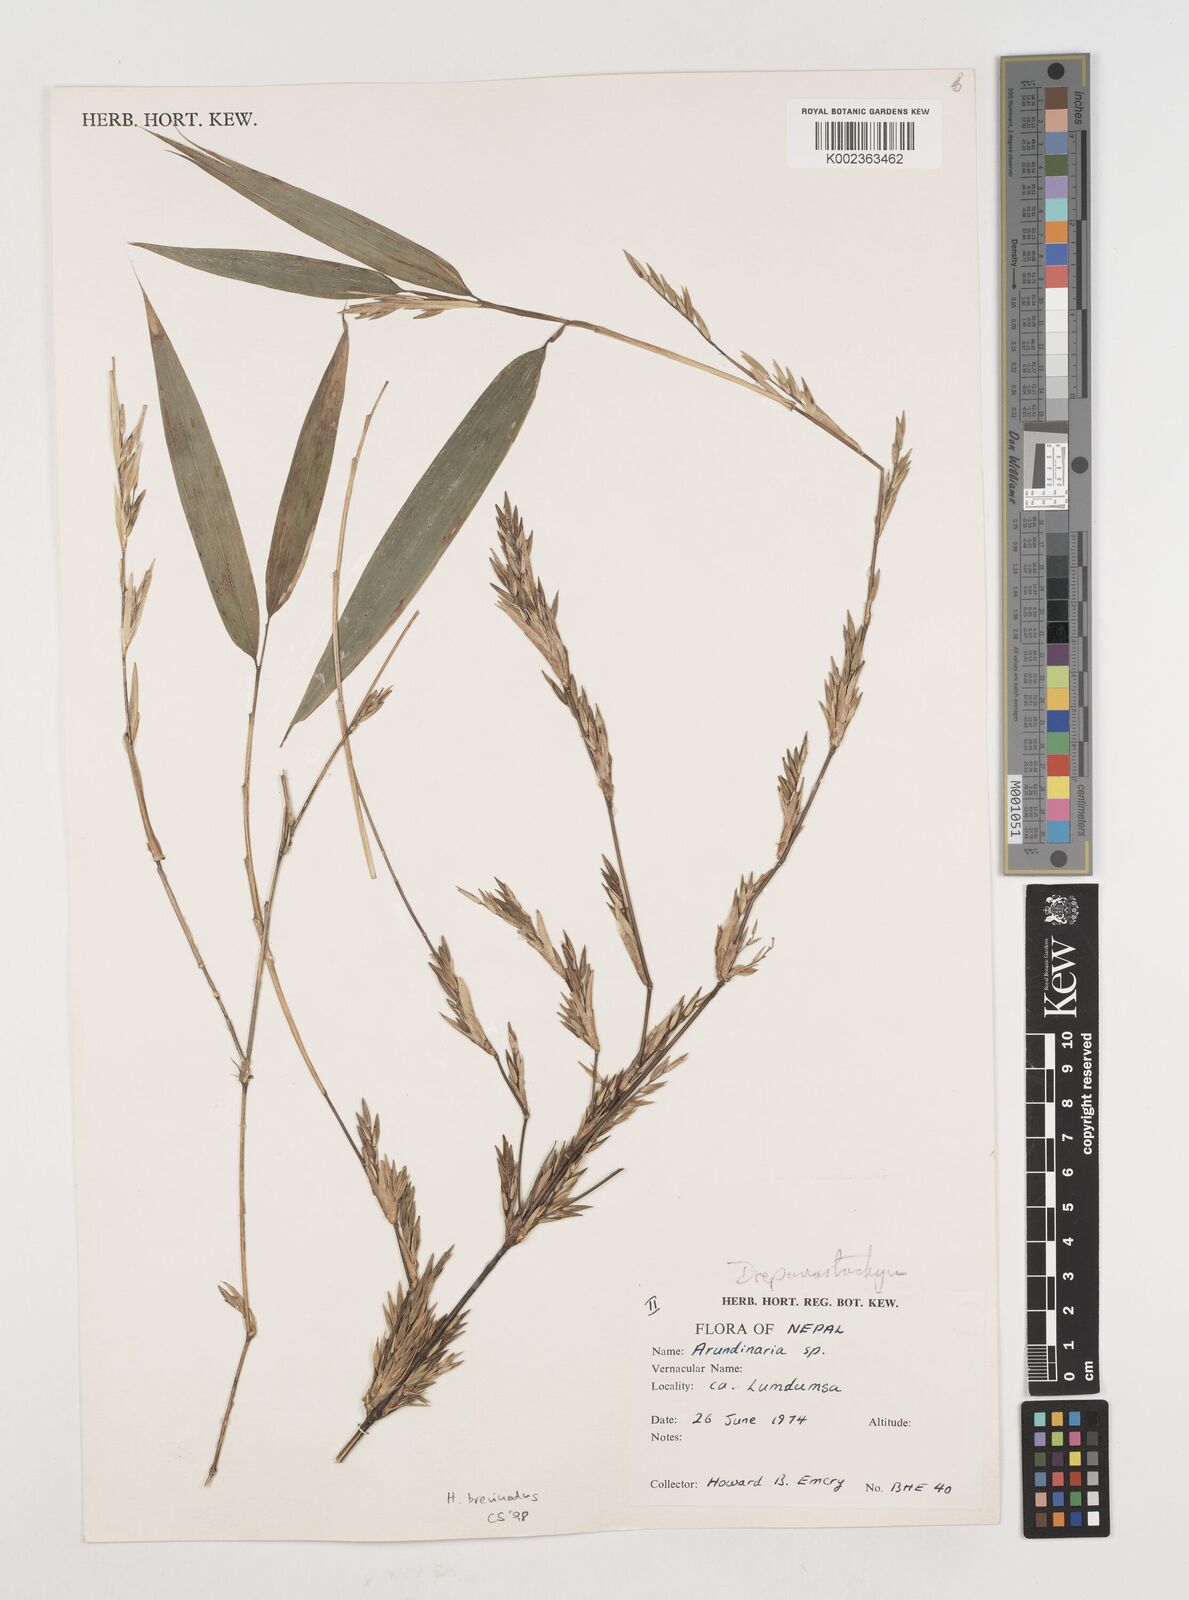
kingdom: Plantae
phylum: Tracheophyta
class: Liliopsida
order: Poales
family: Poaceae
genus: Himalayacalamus
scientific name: Himalayacalamus brevinodus
